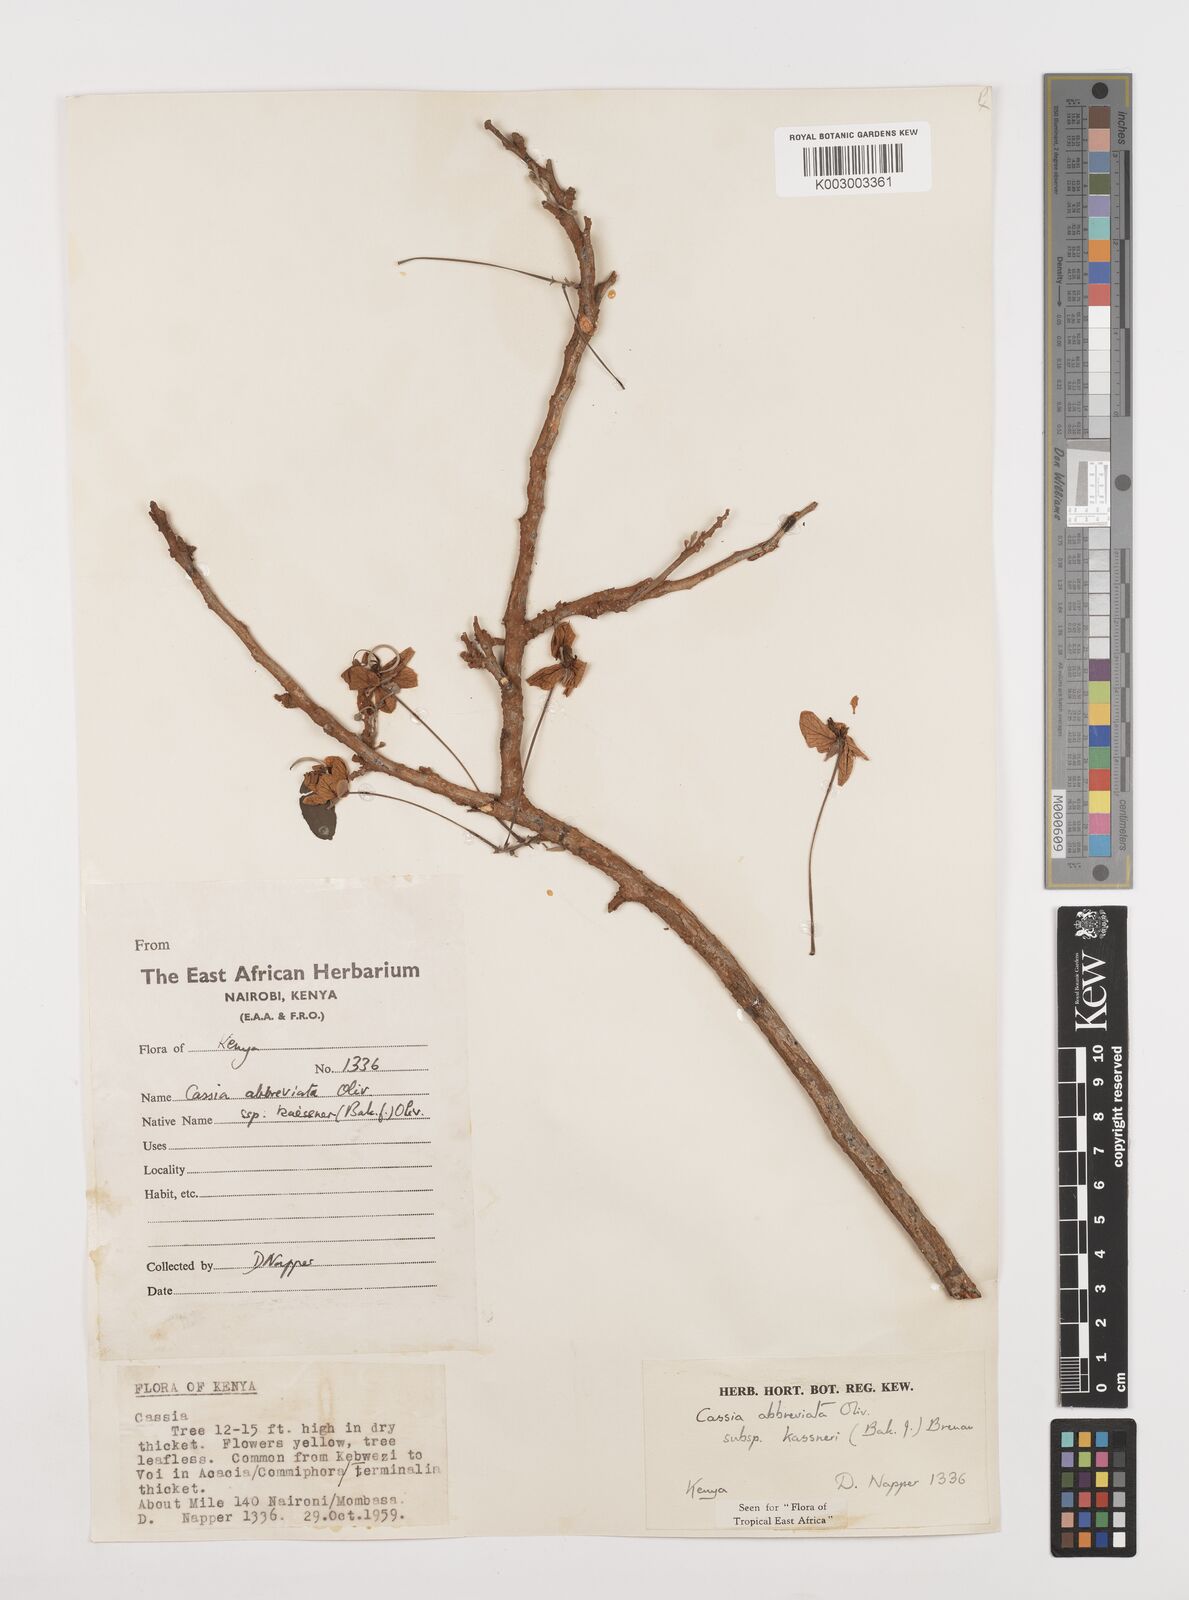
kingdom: Plantae
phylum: Tracheophyta
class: Magnoliopsida
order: Fabales
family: Fabaceae
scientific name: Fabaceae
